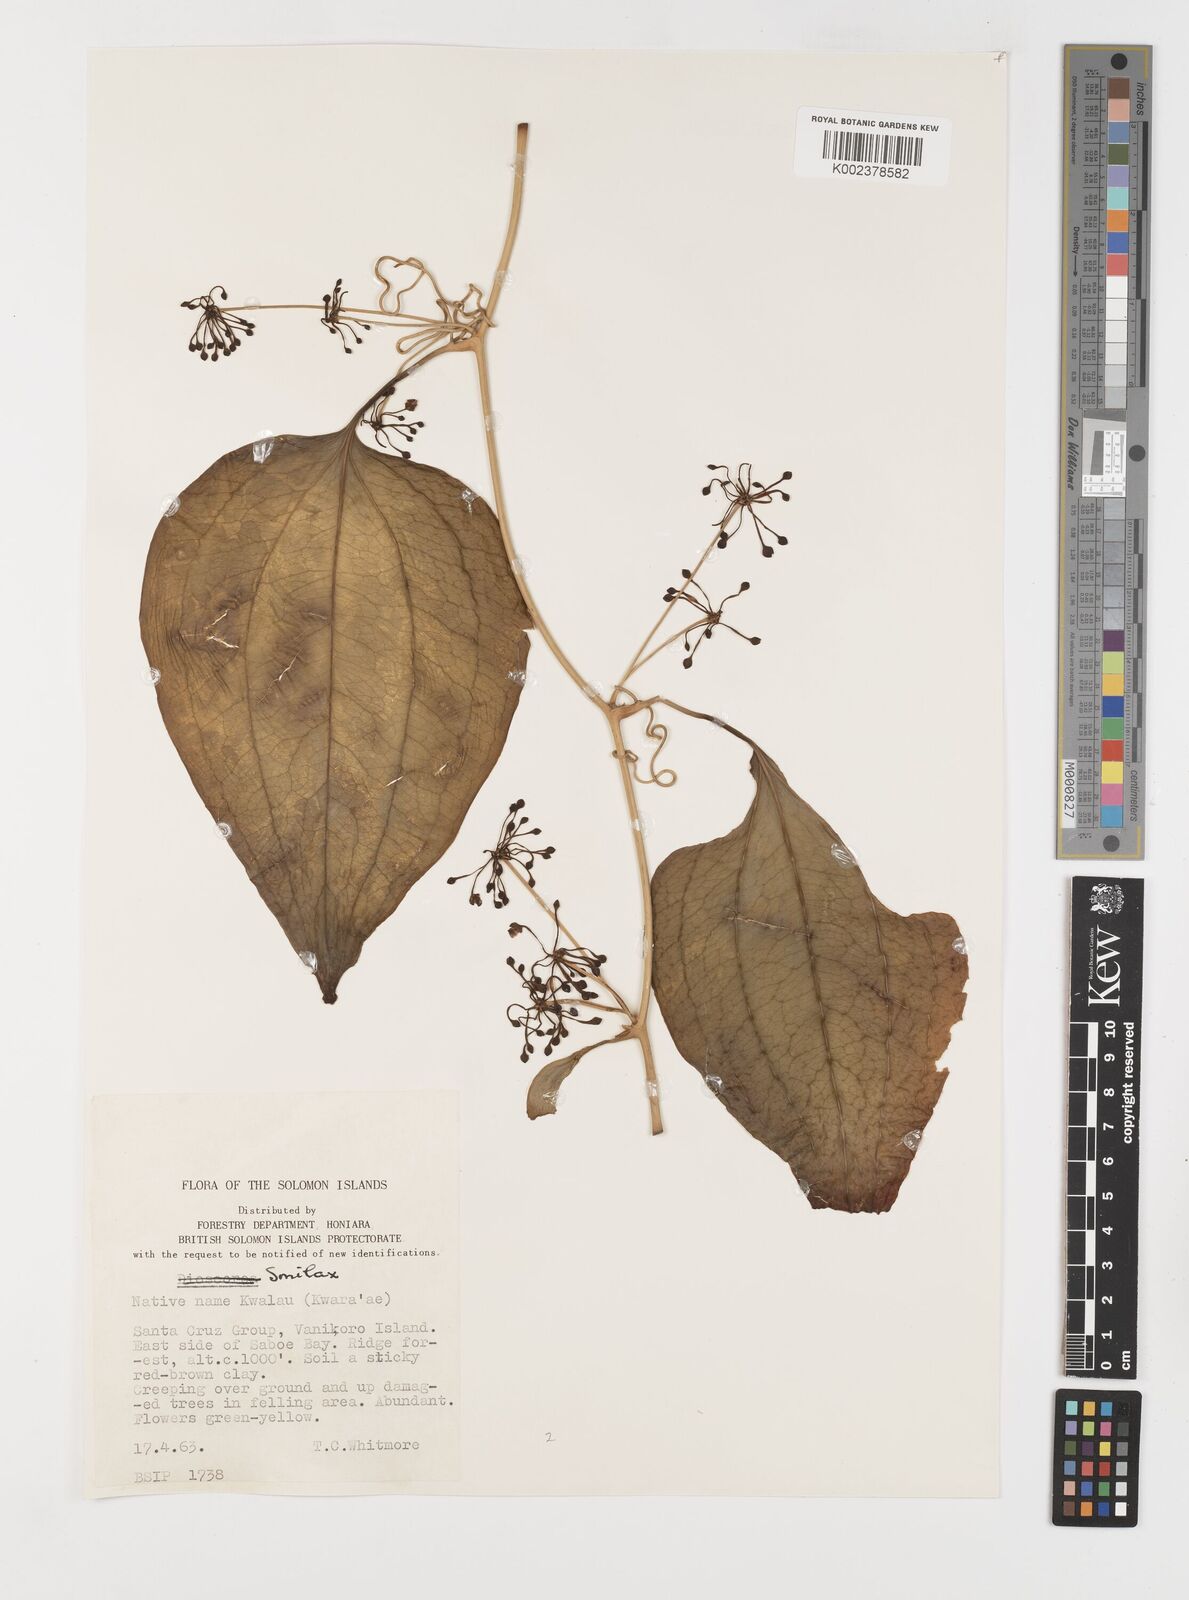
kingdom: Plantae
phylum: Tracheophyta
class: Liliopsida
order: Liliales
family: Smilacaceae
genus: Smilax
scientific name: Smilax
